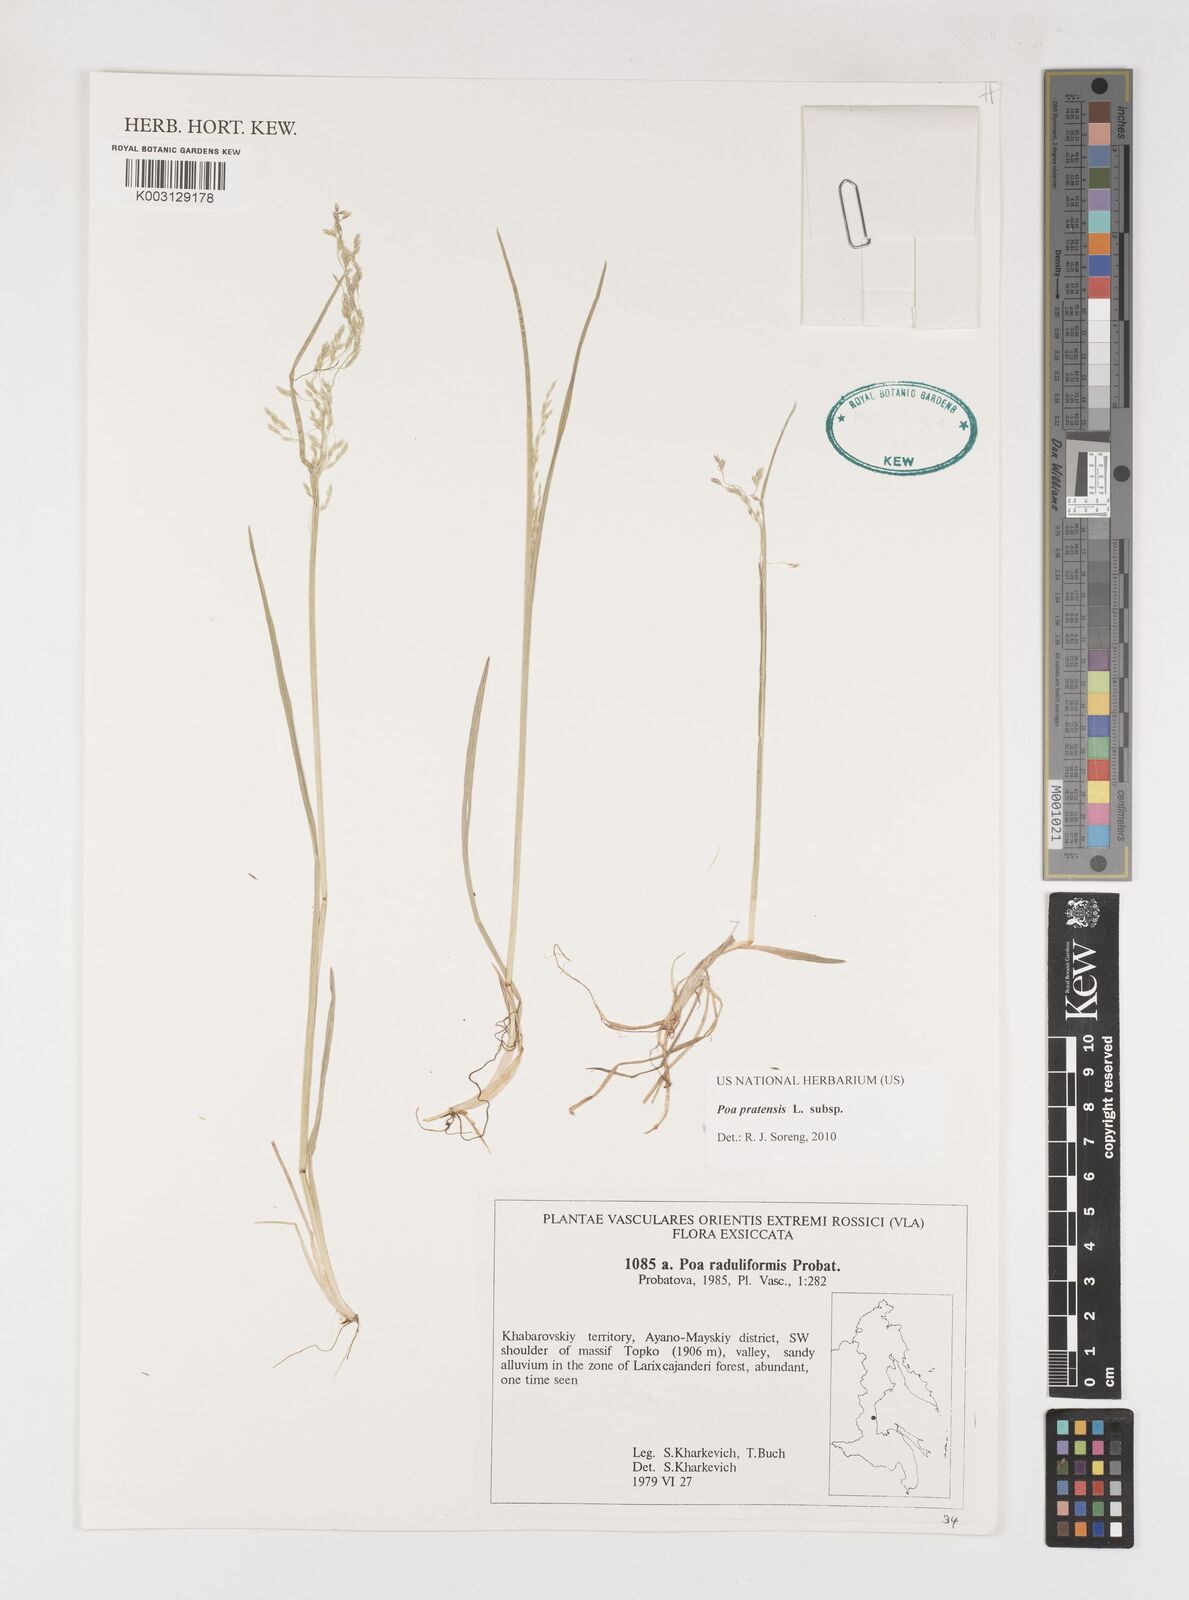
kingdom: Plantae
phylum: Tracheophyta
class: Liliopsida
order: Poales
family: Poaceae
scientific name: Poaceae
